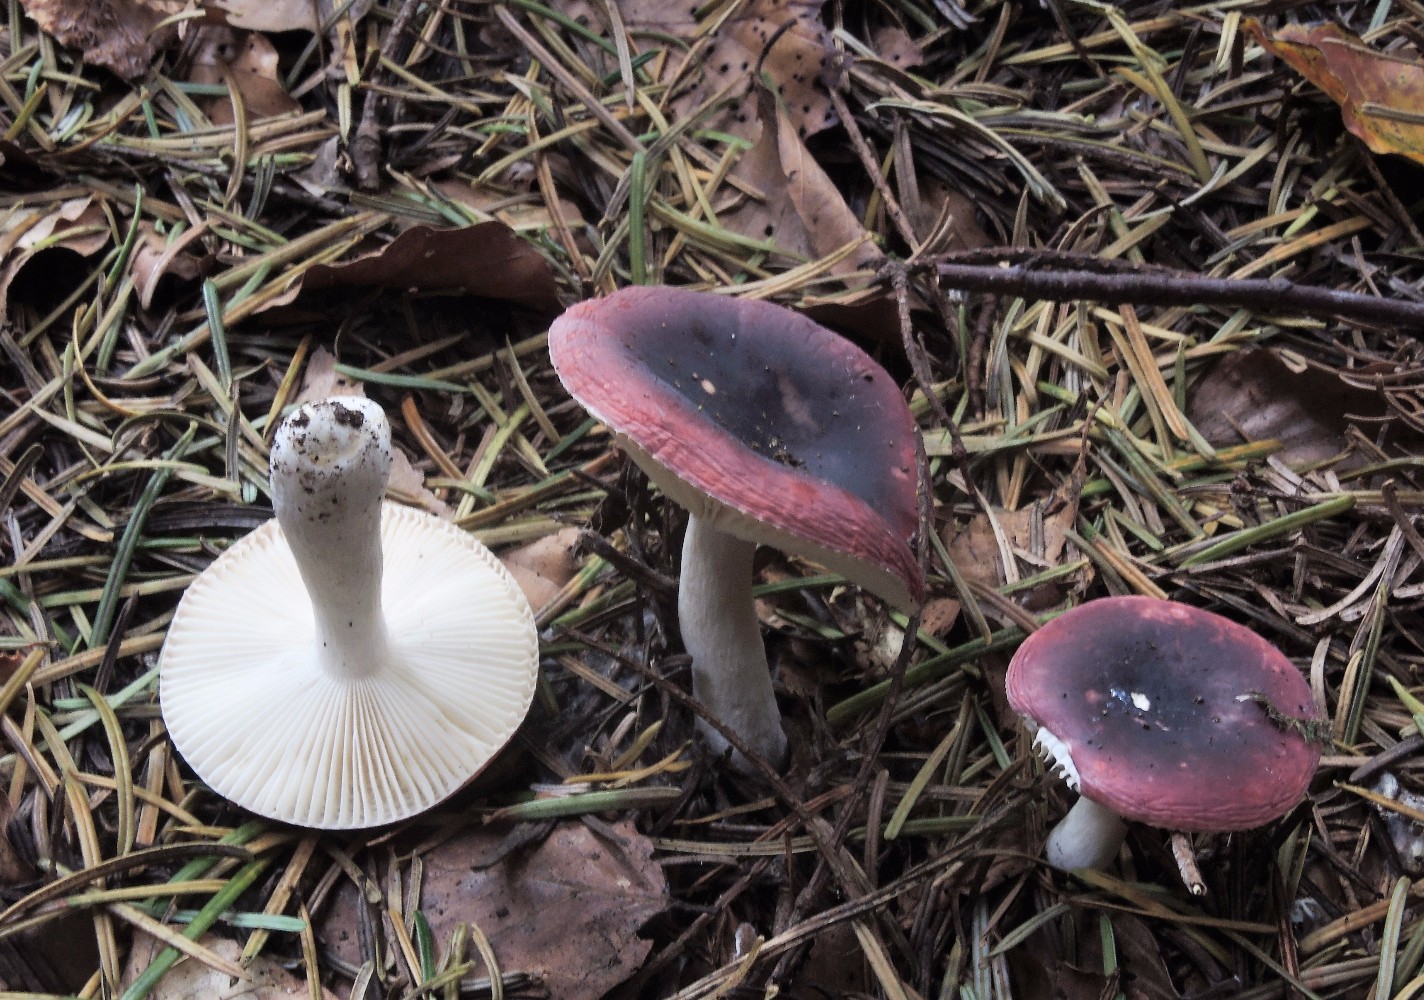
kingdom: Fungi
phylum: Basidiomycota
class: Agaricomycetes
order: Russulales
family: Russulaceae
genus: Russula
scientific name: Russula atrorubens
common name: sortrød skørhat
